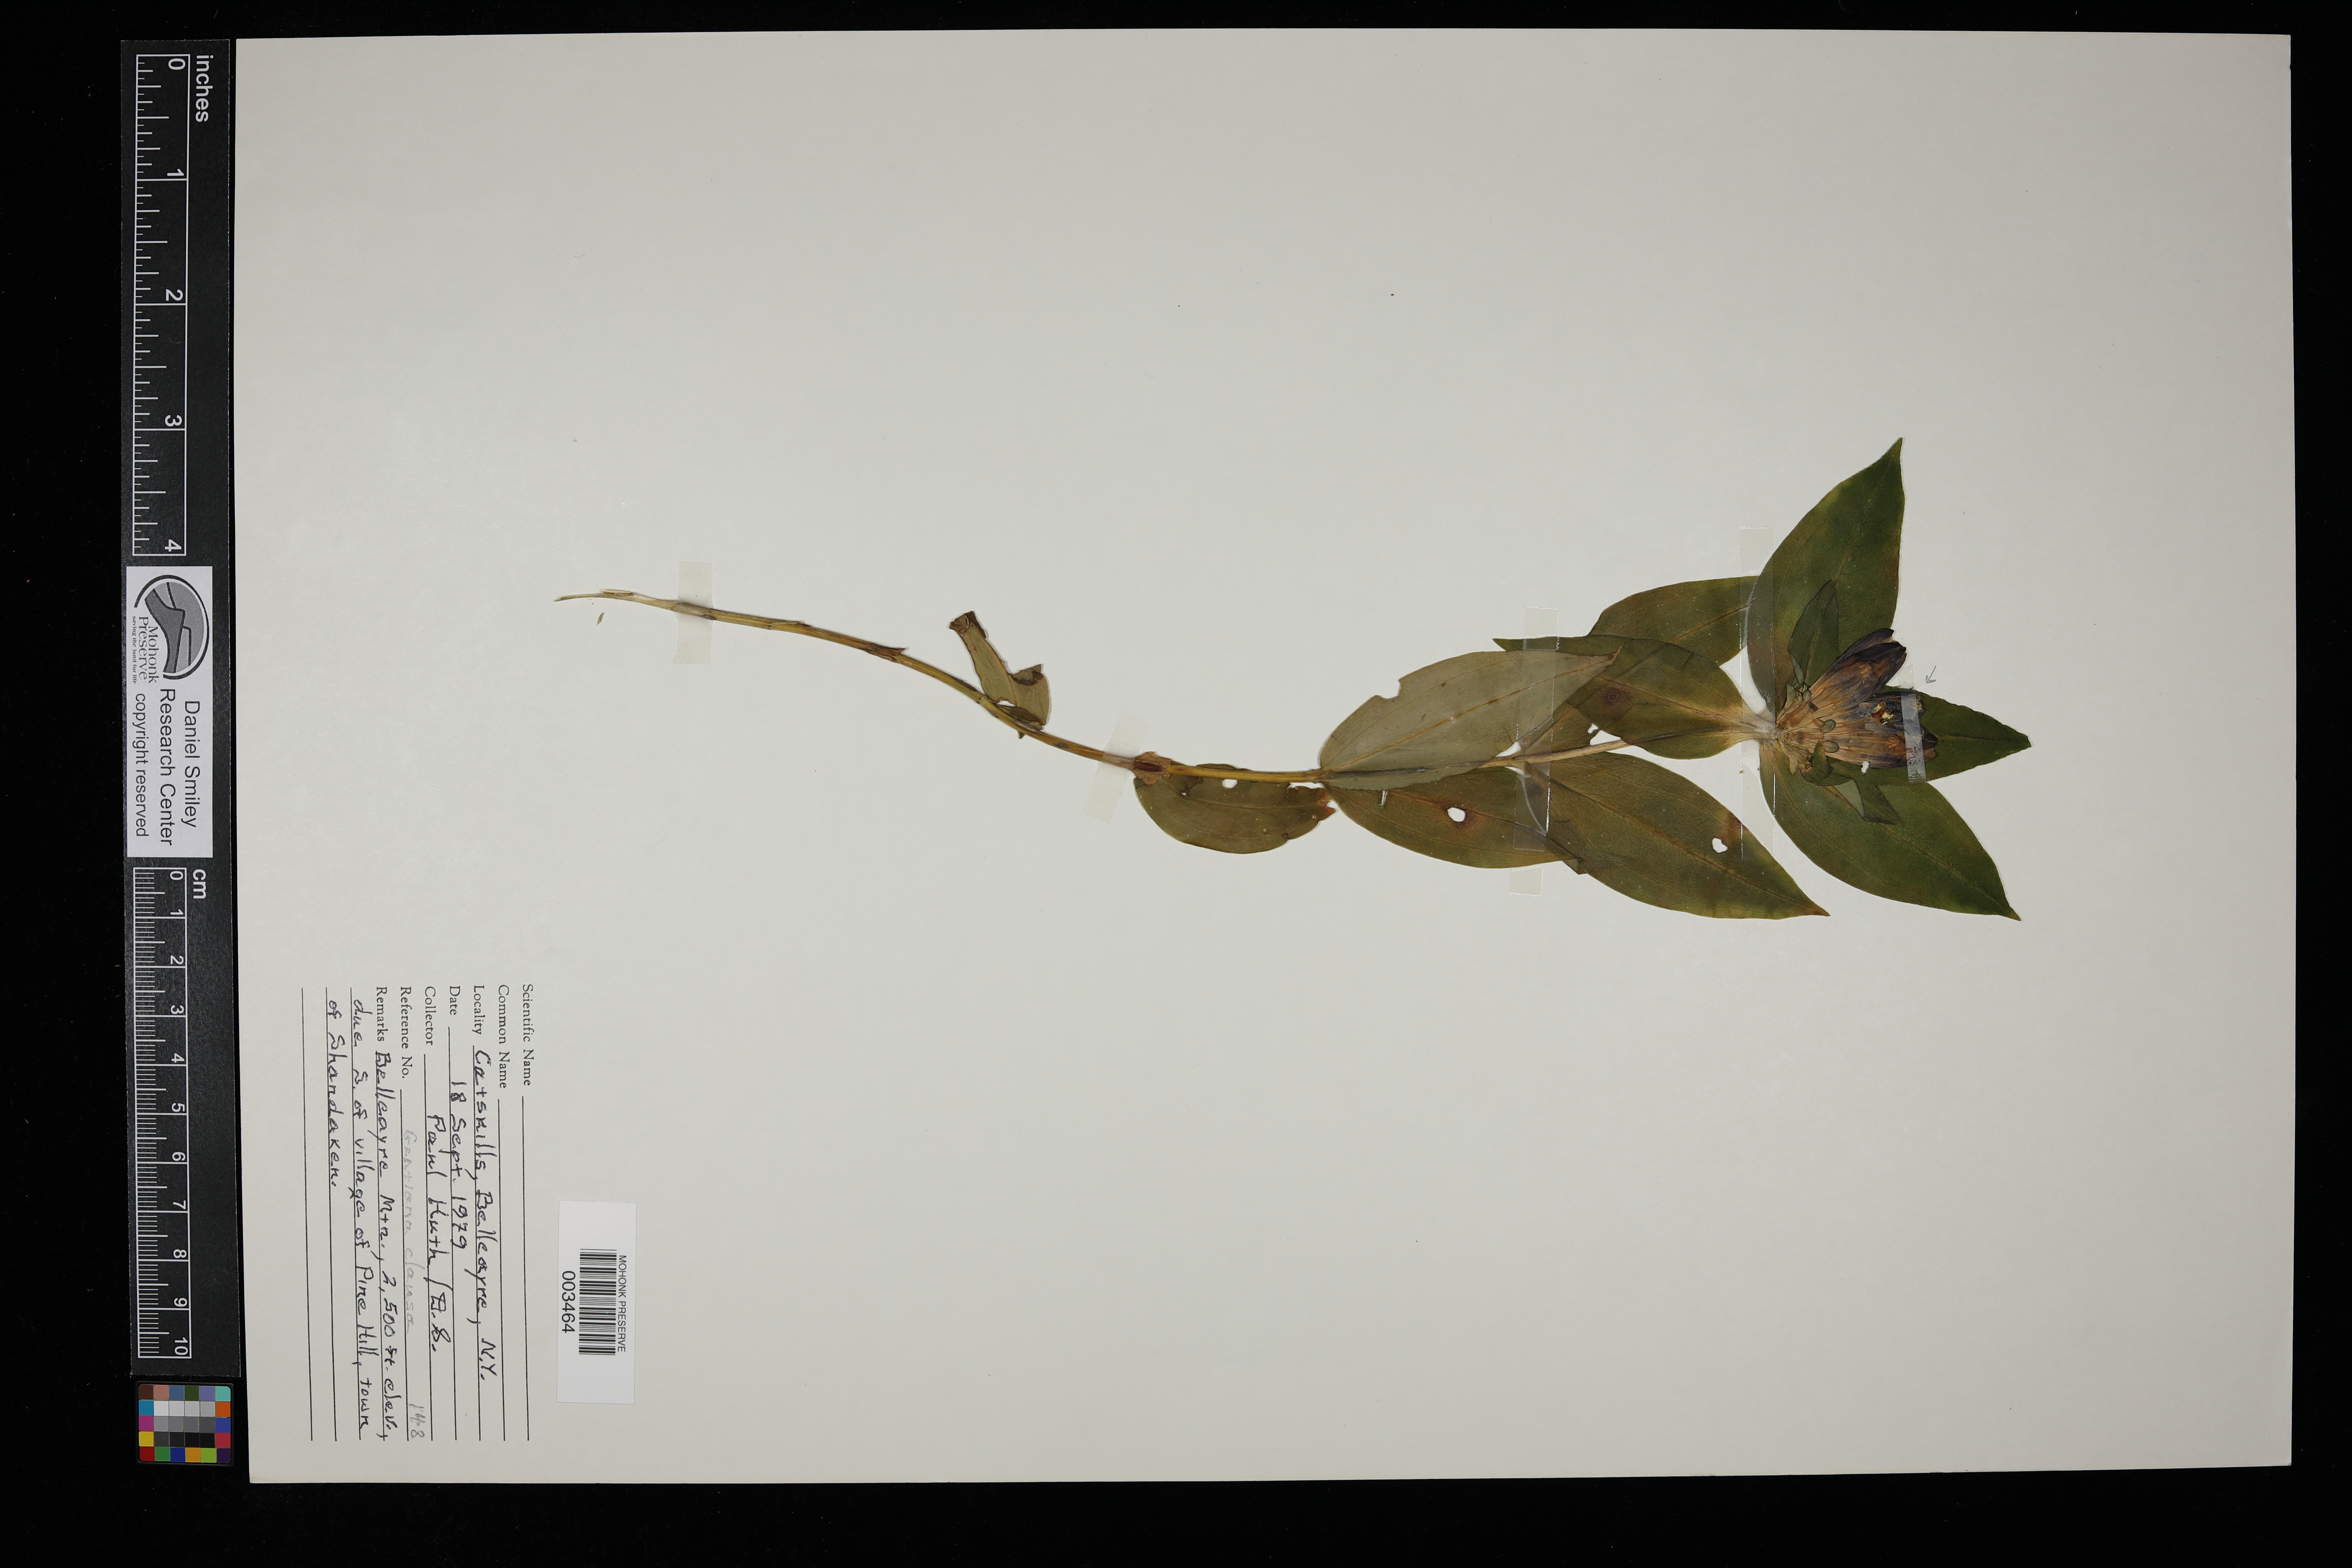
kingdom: Plantae
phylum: Tracheophyta
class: Magnoliopsida
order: Gentianales
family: Gentianaceae
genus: Gentiana
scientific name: Gentiana clausa
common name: Blind gentian
